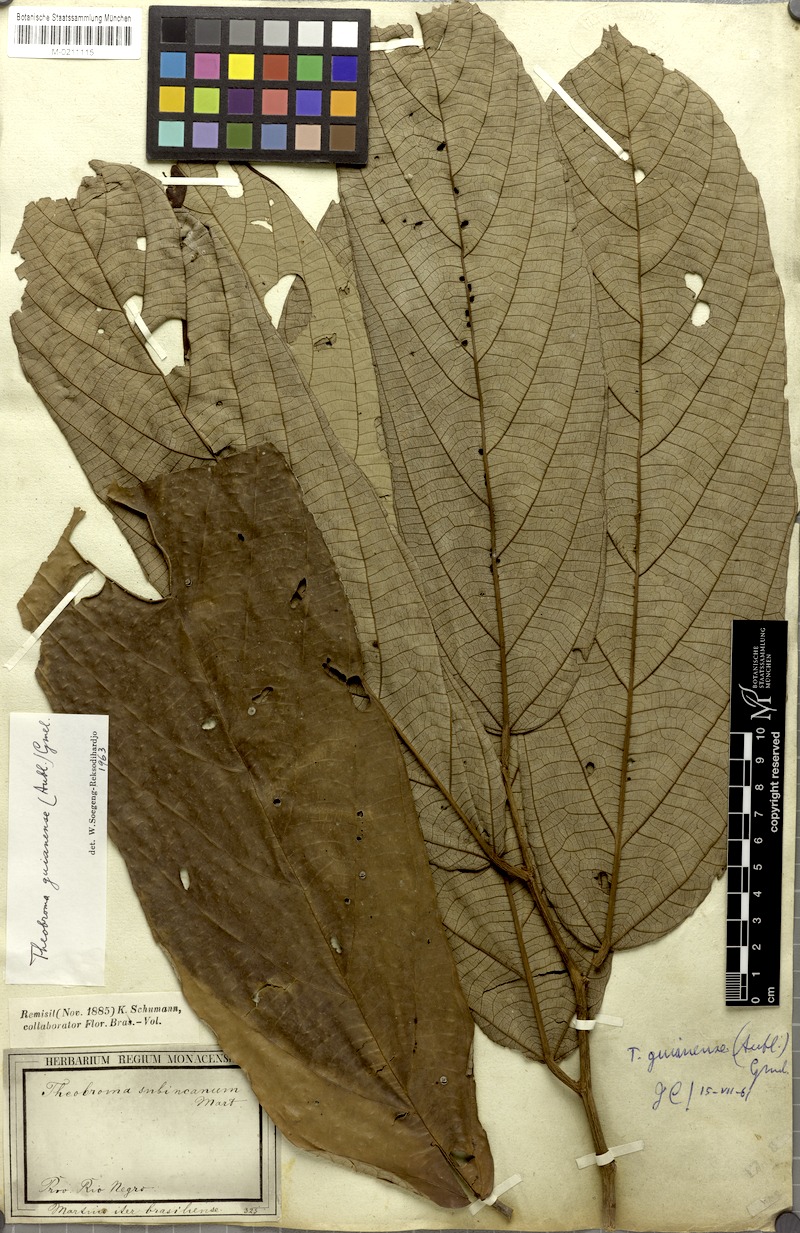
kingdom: Plantae
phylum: Tracheophyta
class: Magnoliopsida
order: Malvales
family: Malvaceae
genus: Theobroma
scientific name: Theobroma subincanum
